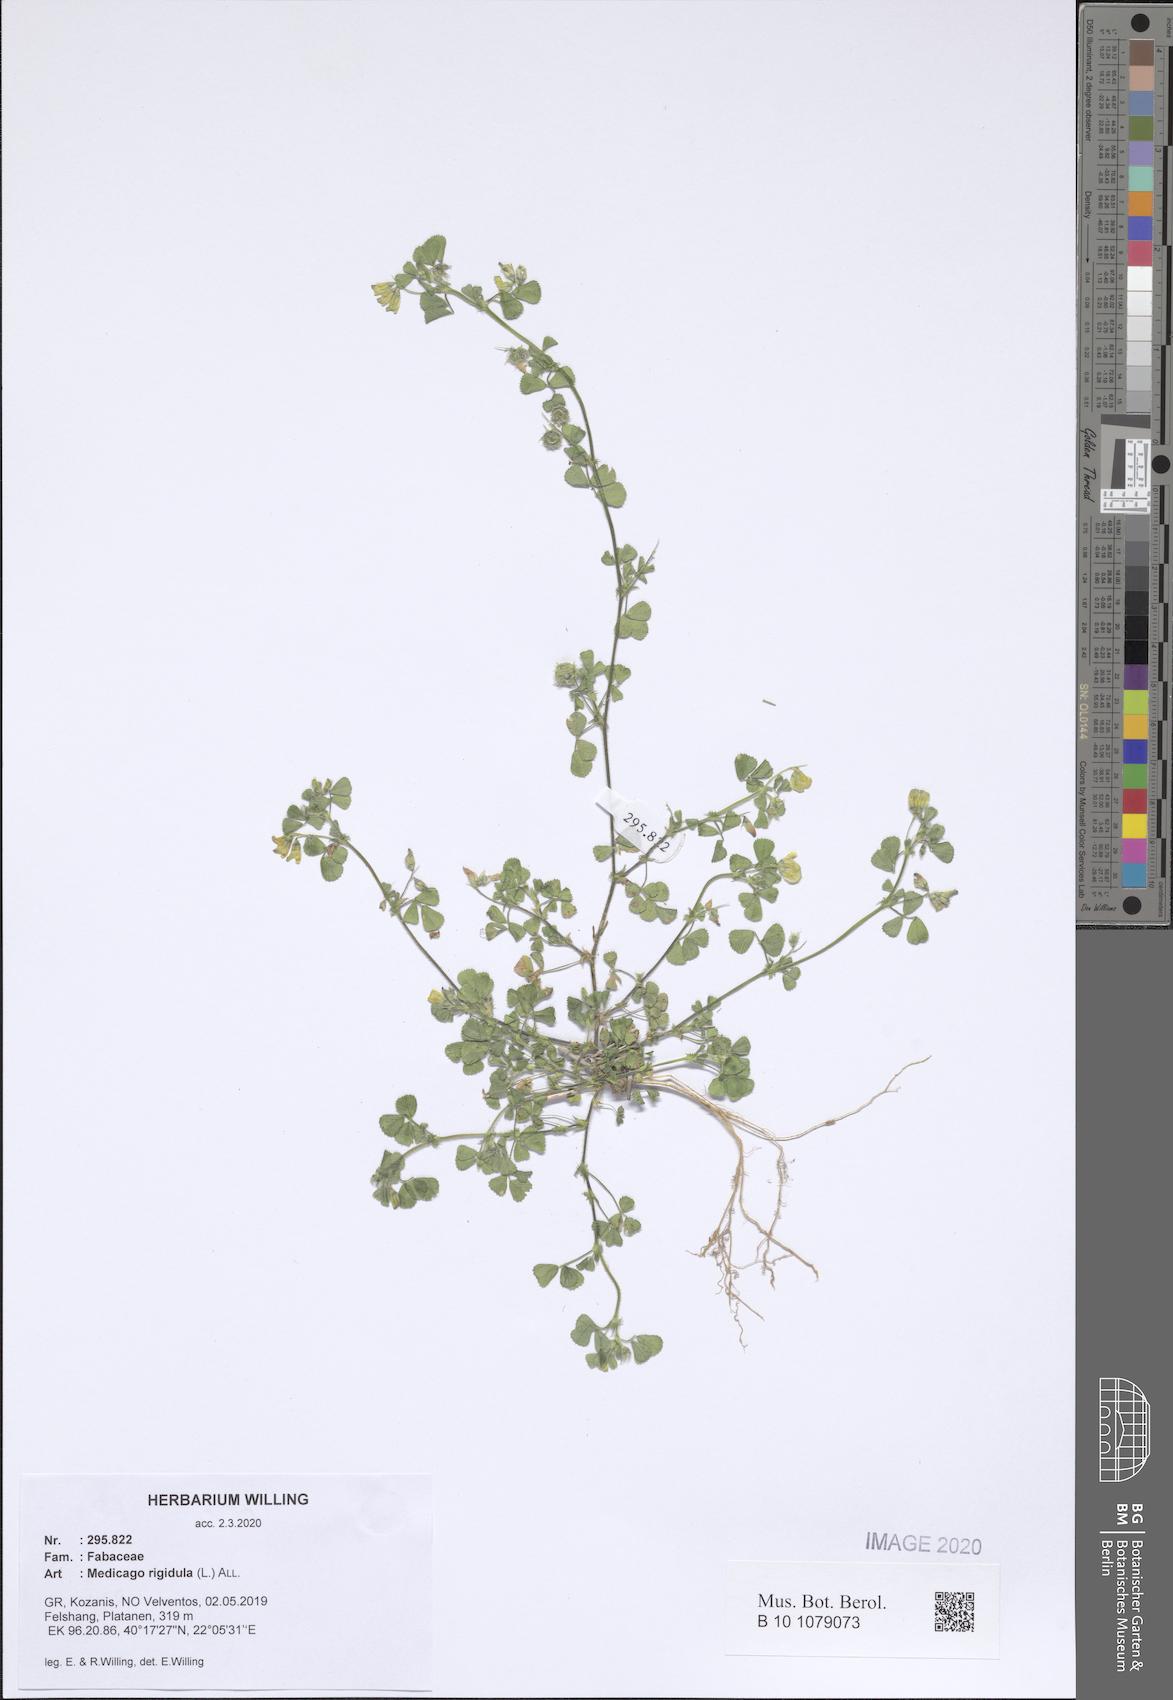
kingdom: Plantae
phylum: Tracheophyta
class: Magnoliopsida
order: Fabales
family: Fabaceae
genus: Medicago
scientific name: Medicago rigidula
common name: Tifton medic
